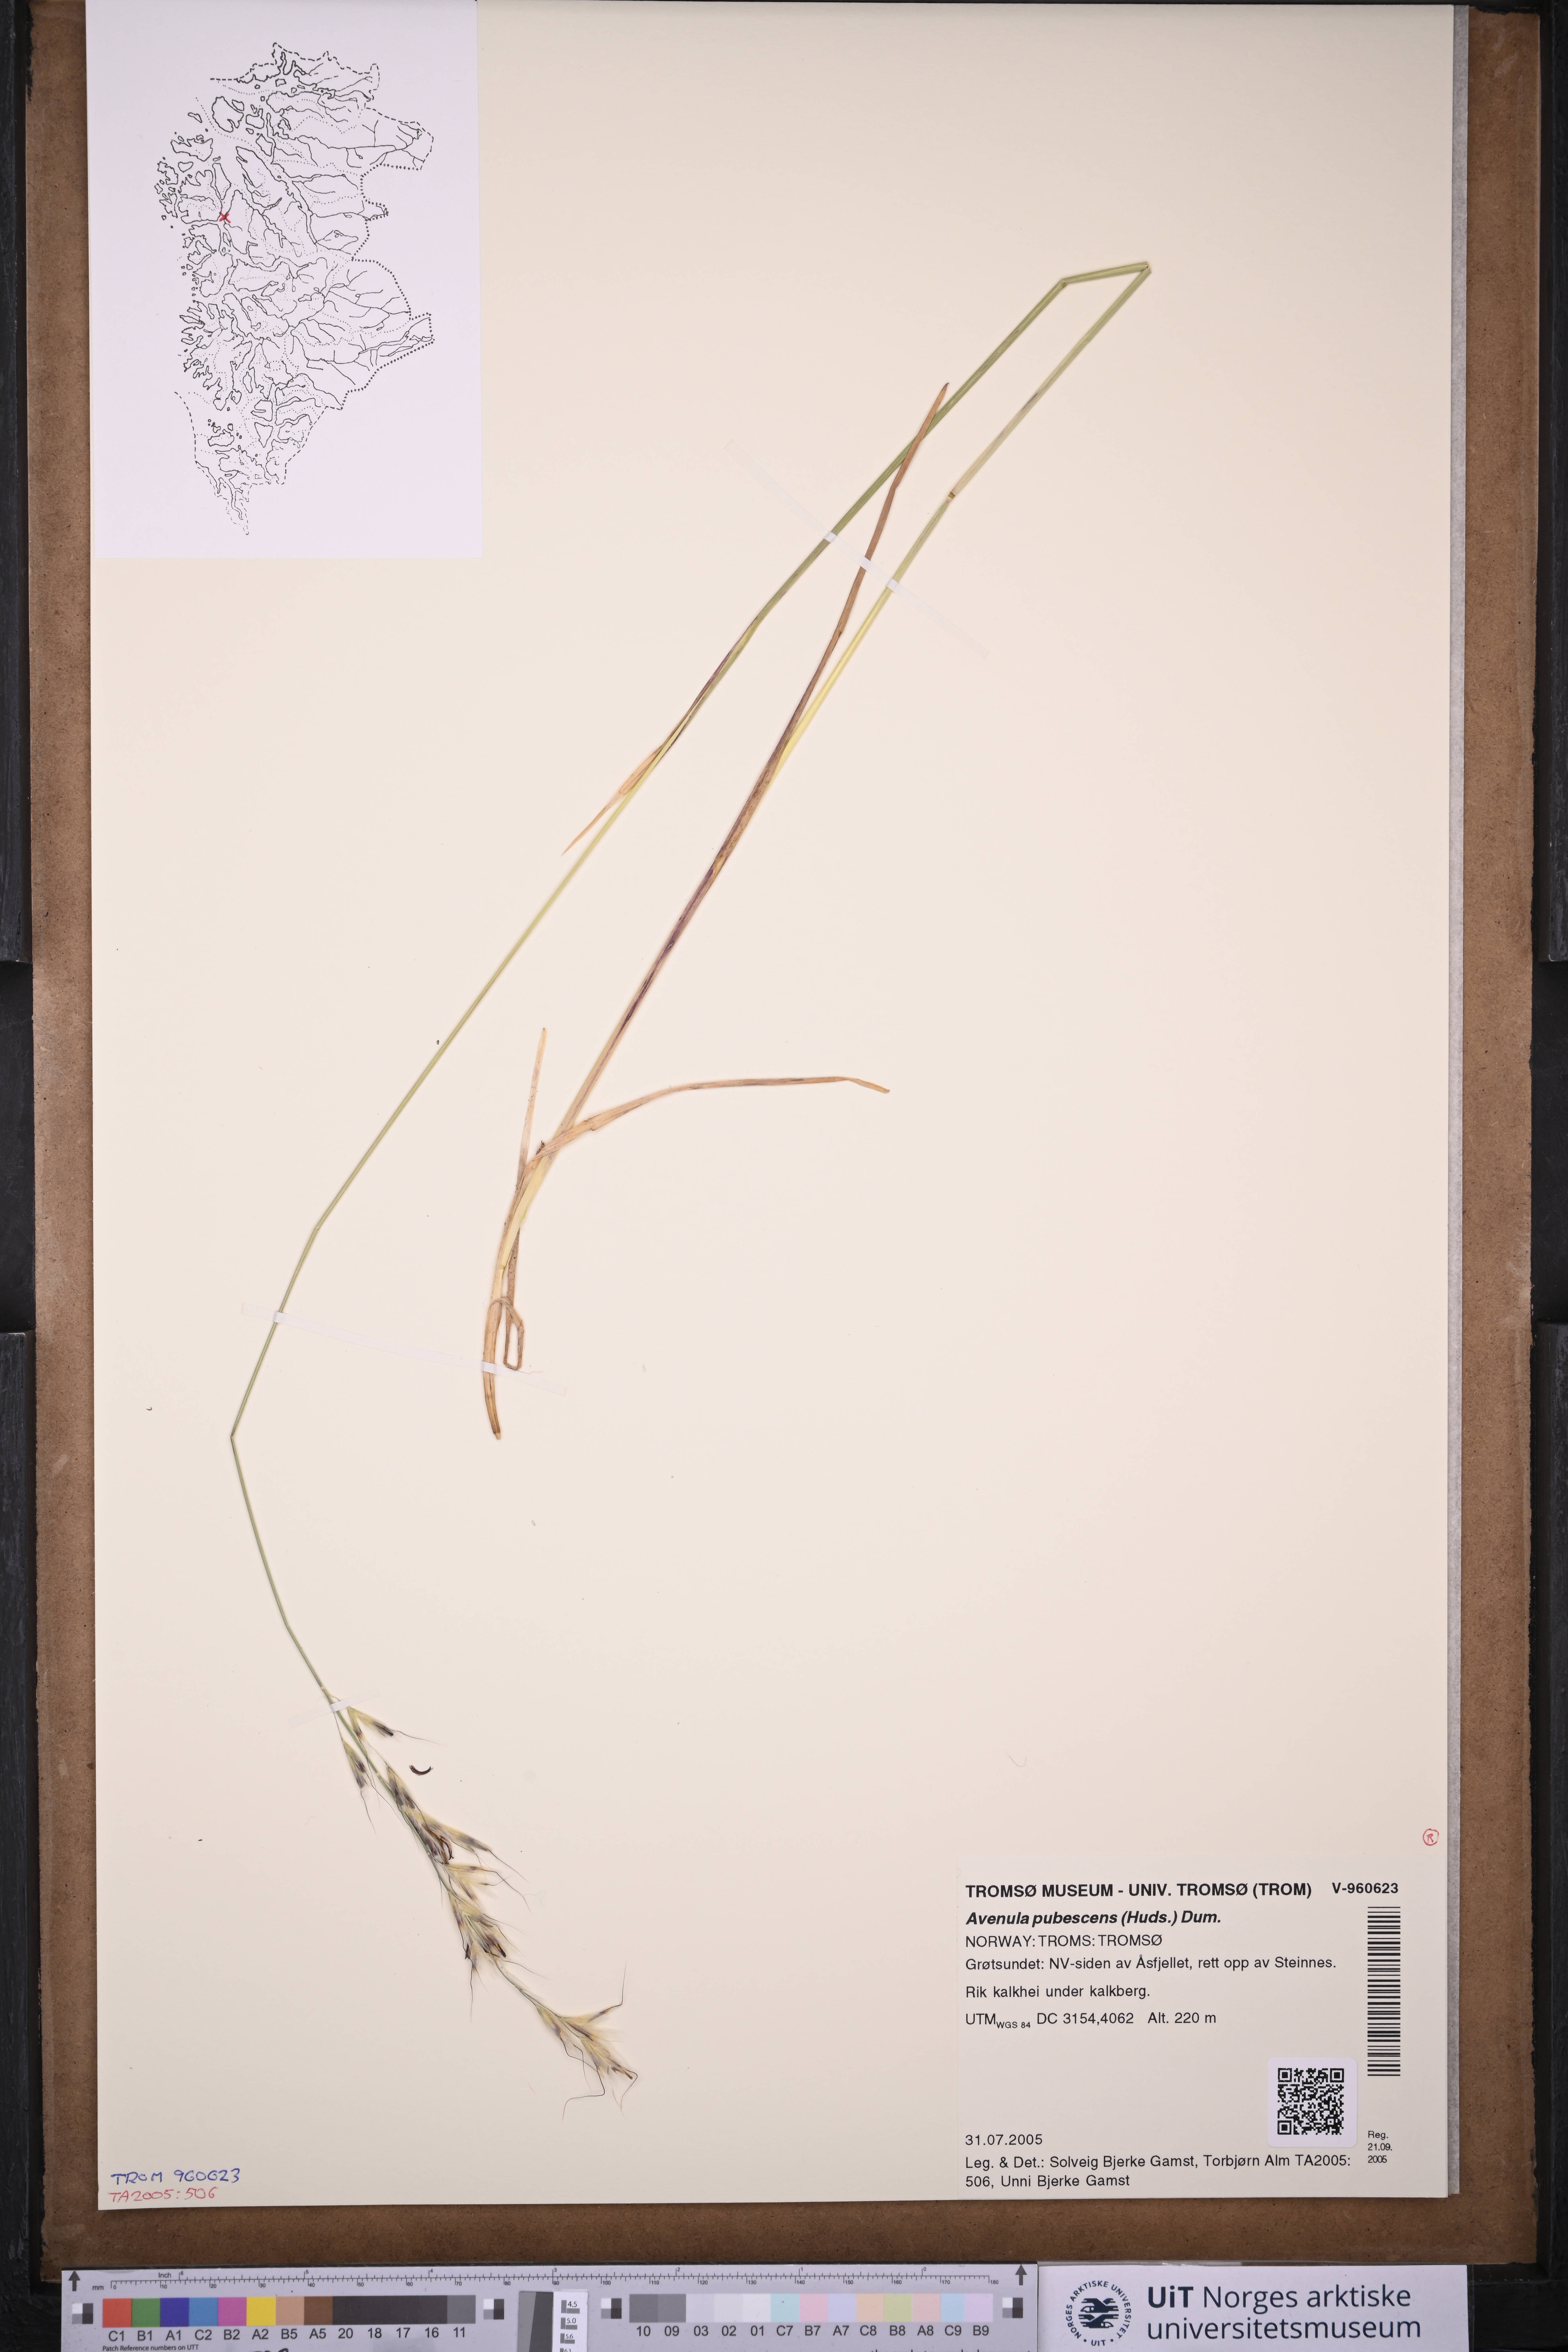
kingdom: Plantae
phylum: Tracheophyta
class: Liliopsida
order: Poales
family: Poaceae
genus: Avenula
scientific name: Avenula pubescens
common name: Downy alpine oatgrass
